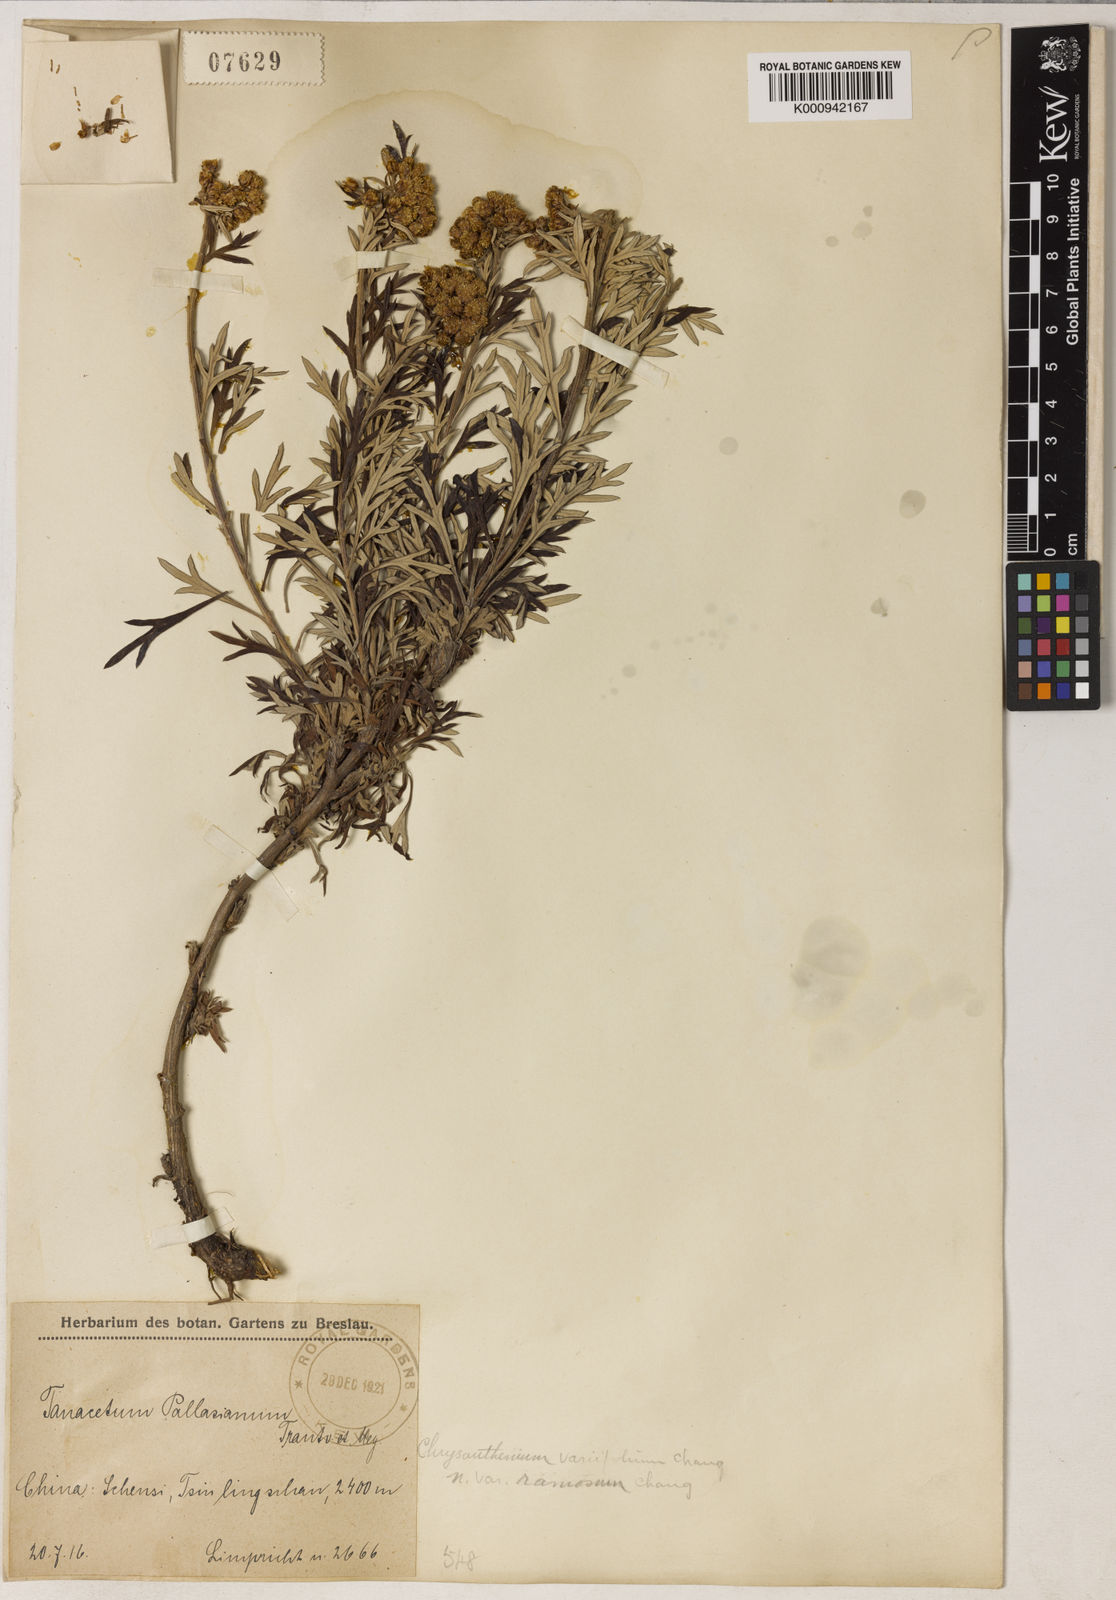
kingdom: Plantae
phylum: Tracheophyta
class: Magnoliopsida
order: Asterales
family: Asteraceae
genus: Phaeostigma
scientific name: Phaeostigma variifolium
